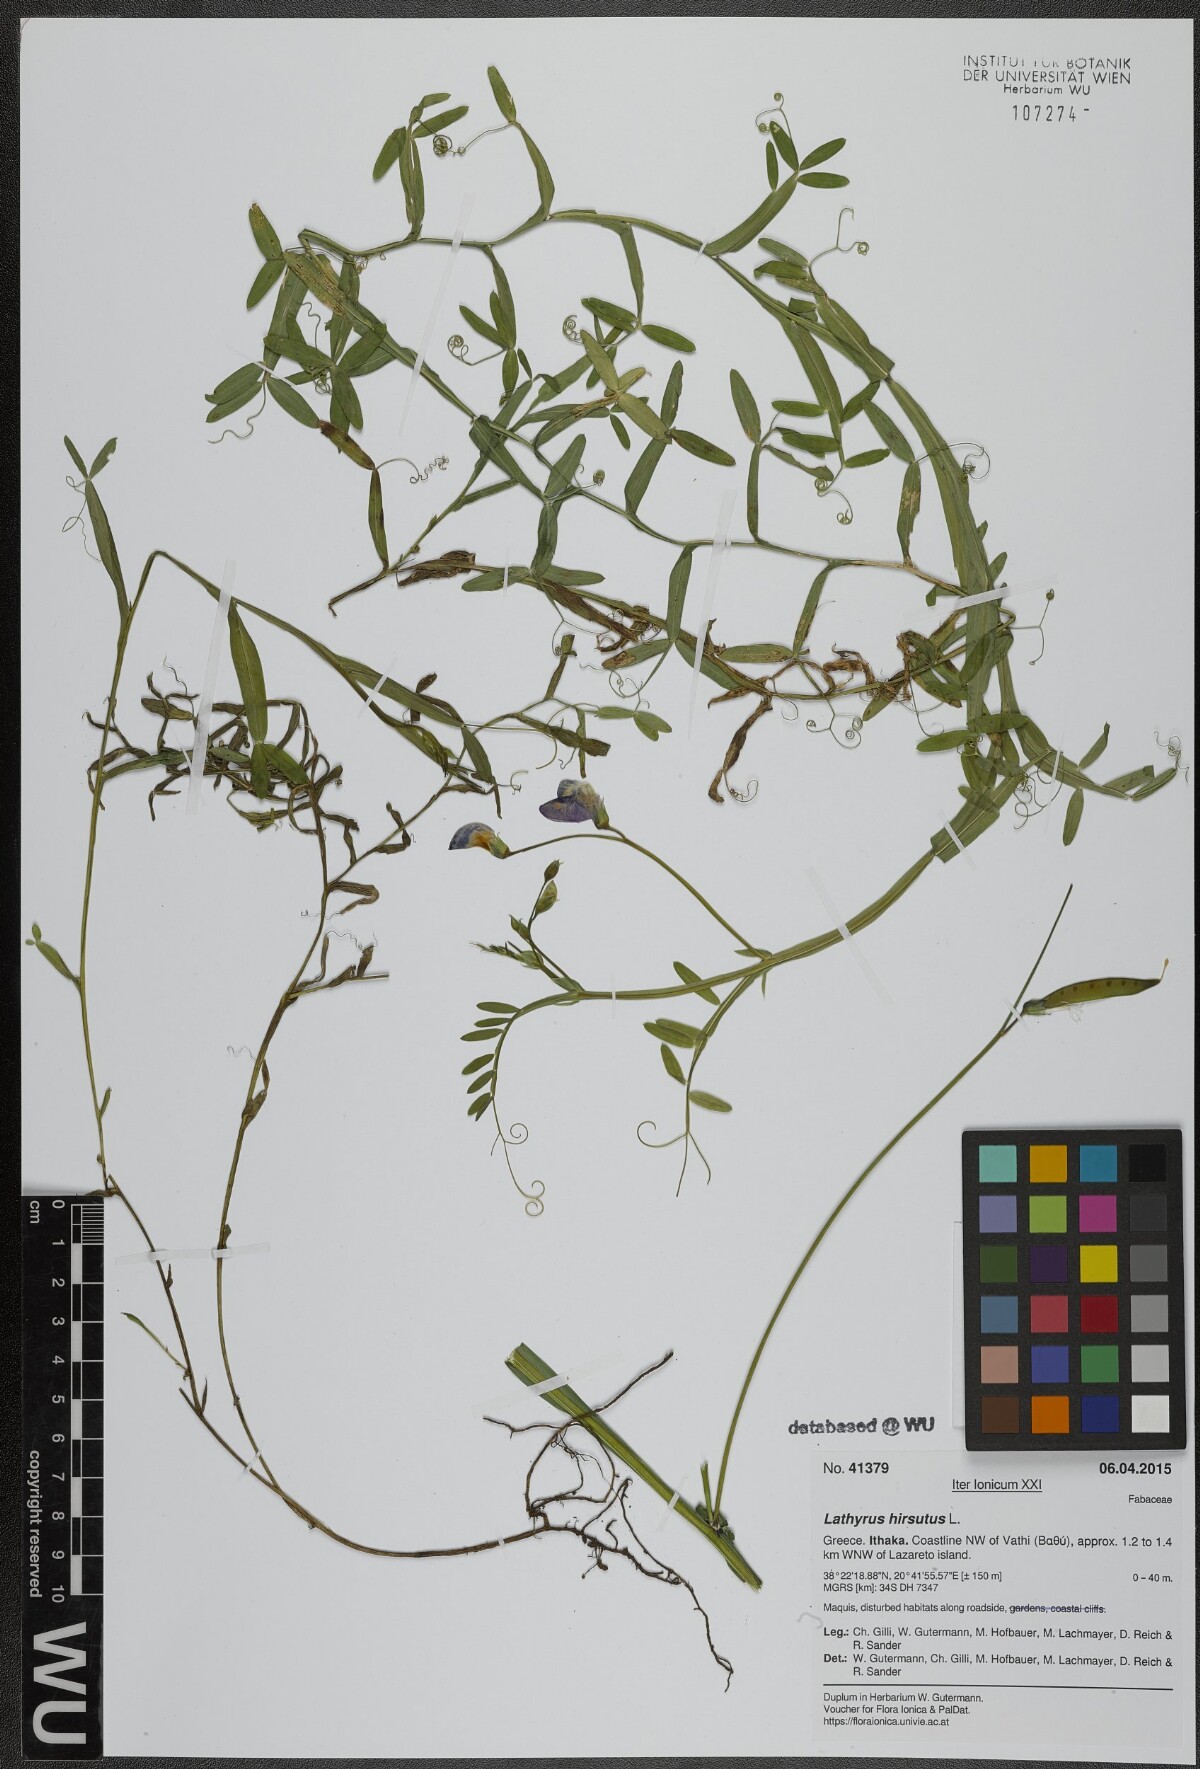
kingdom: Plantae
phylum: Tracheophyta
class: Magnoliopsida
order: Fabales
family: Fabaceae
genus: Lathyrus
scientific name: Lathyrus hirsutus
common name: Hairy vetchling
